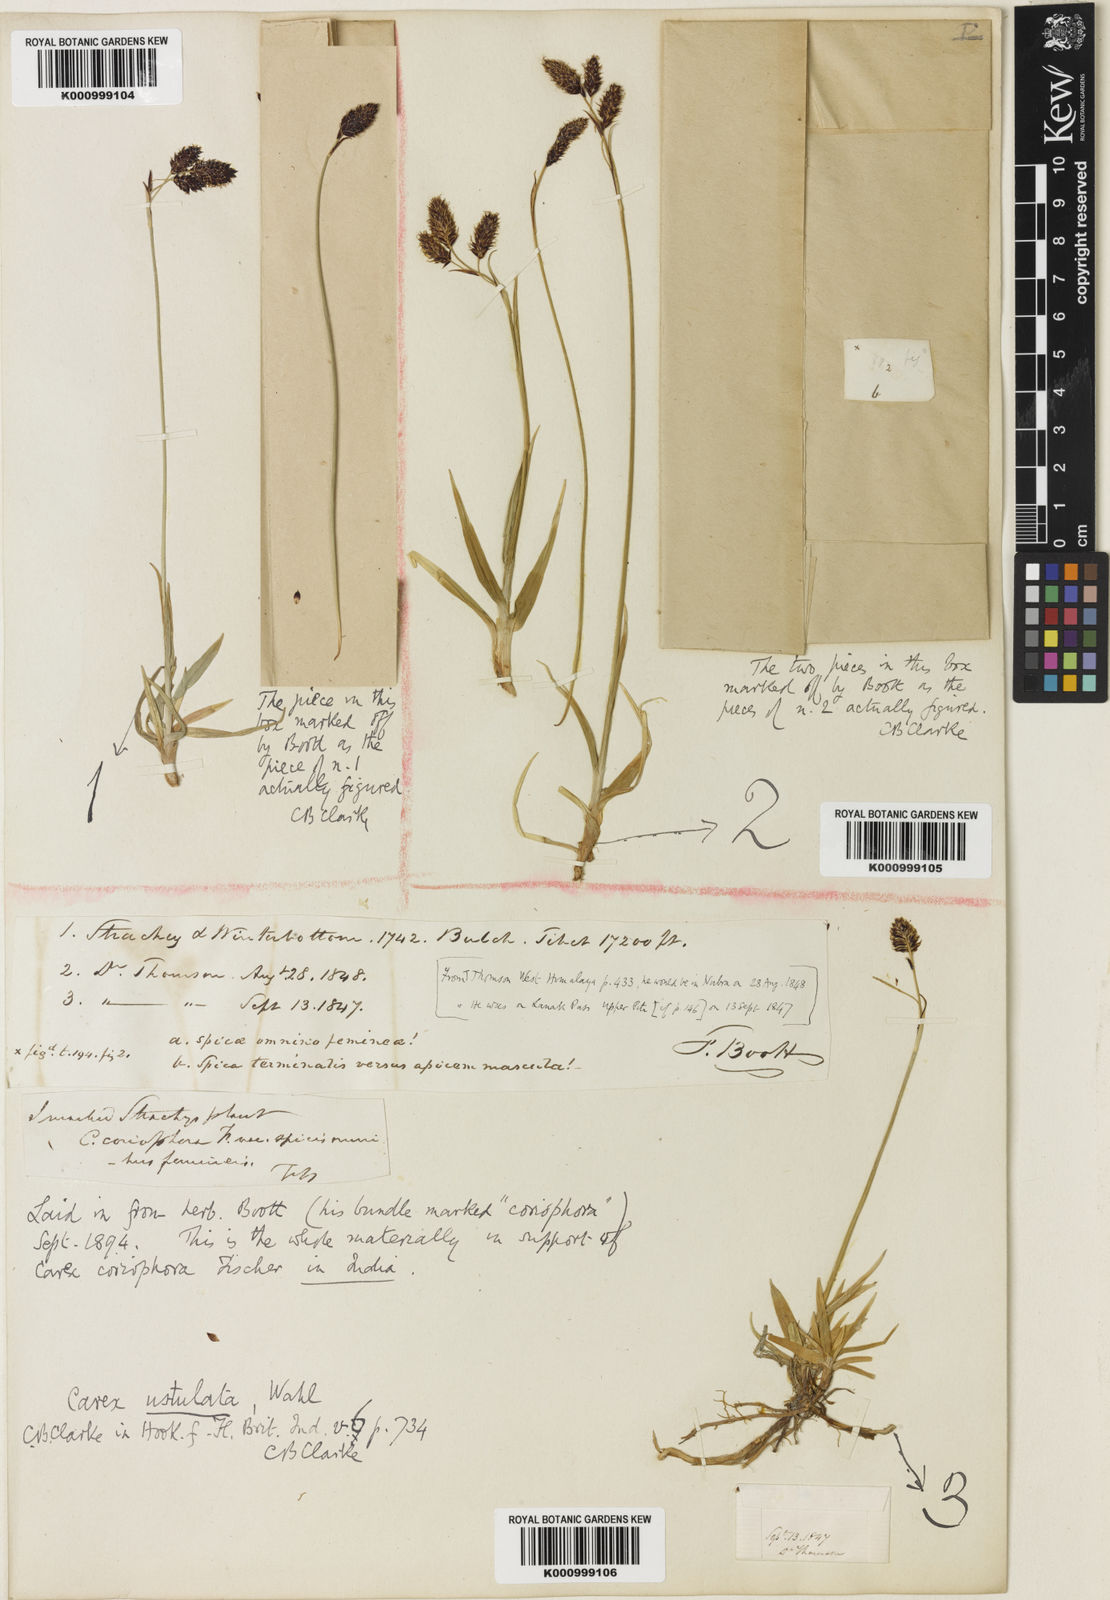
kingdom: Plantae
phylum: Tracheophyta
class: Liliopsida
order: Poales
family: Cyperaceae
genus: Carex
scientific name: Carex hypsobates
